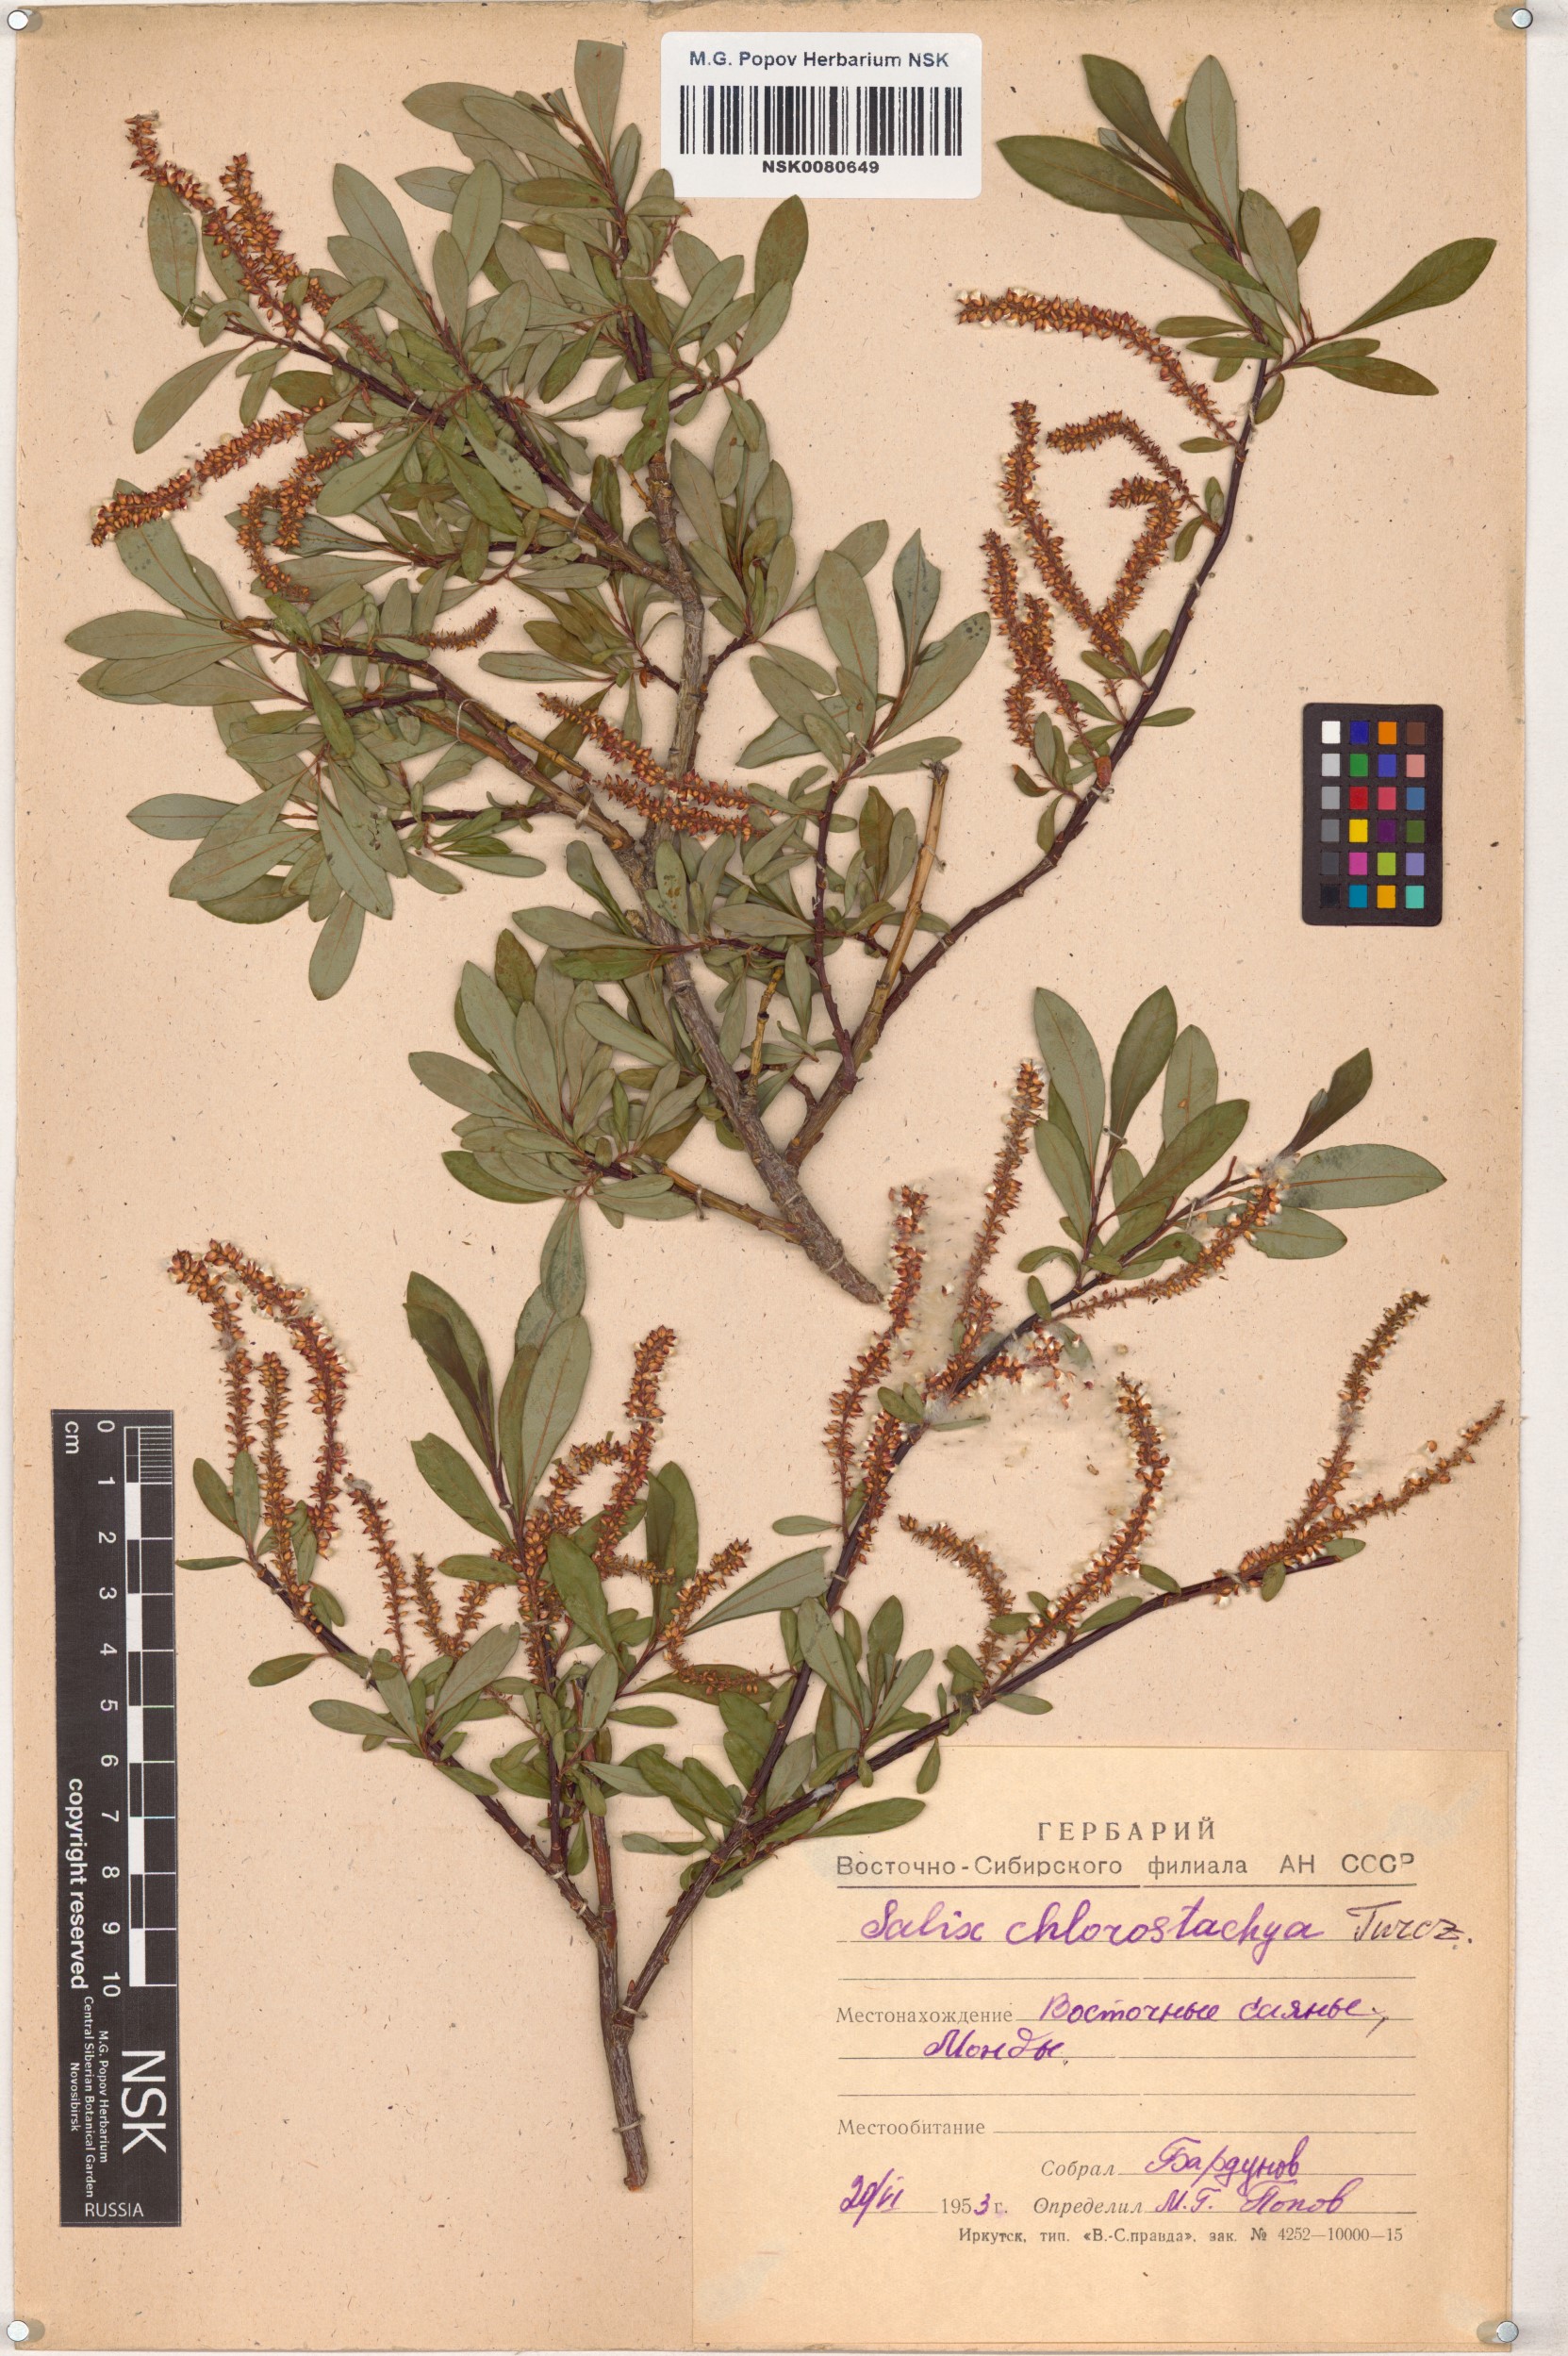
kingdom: Plantae
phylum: Tracheophyta
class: Magnoliopsida
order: Malpighiales
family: Salicaceae
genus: Salix
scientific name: Salix rhamnifolia
